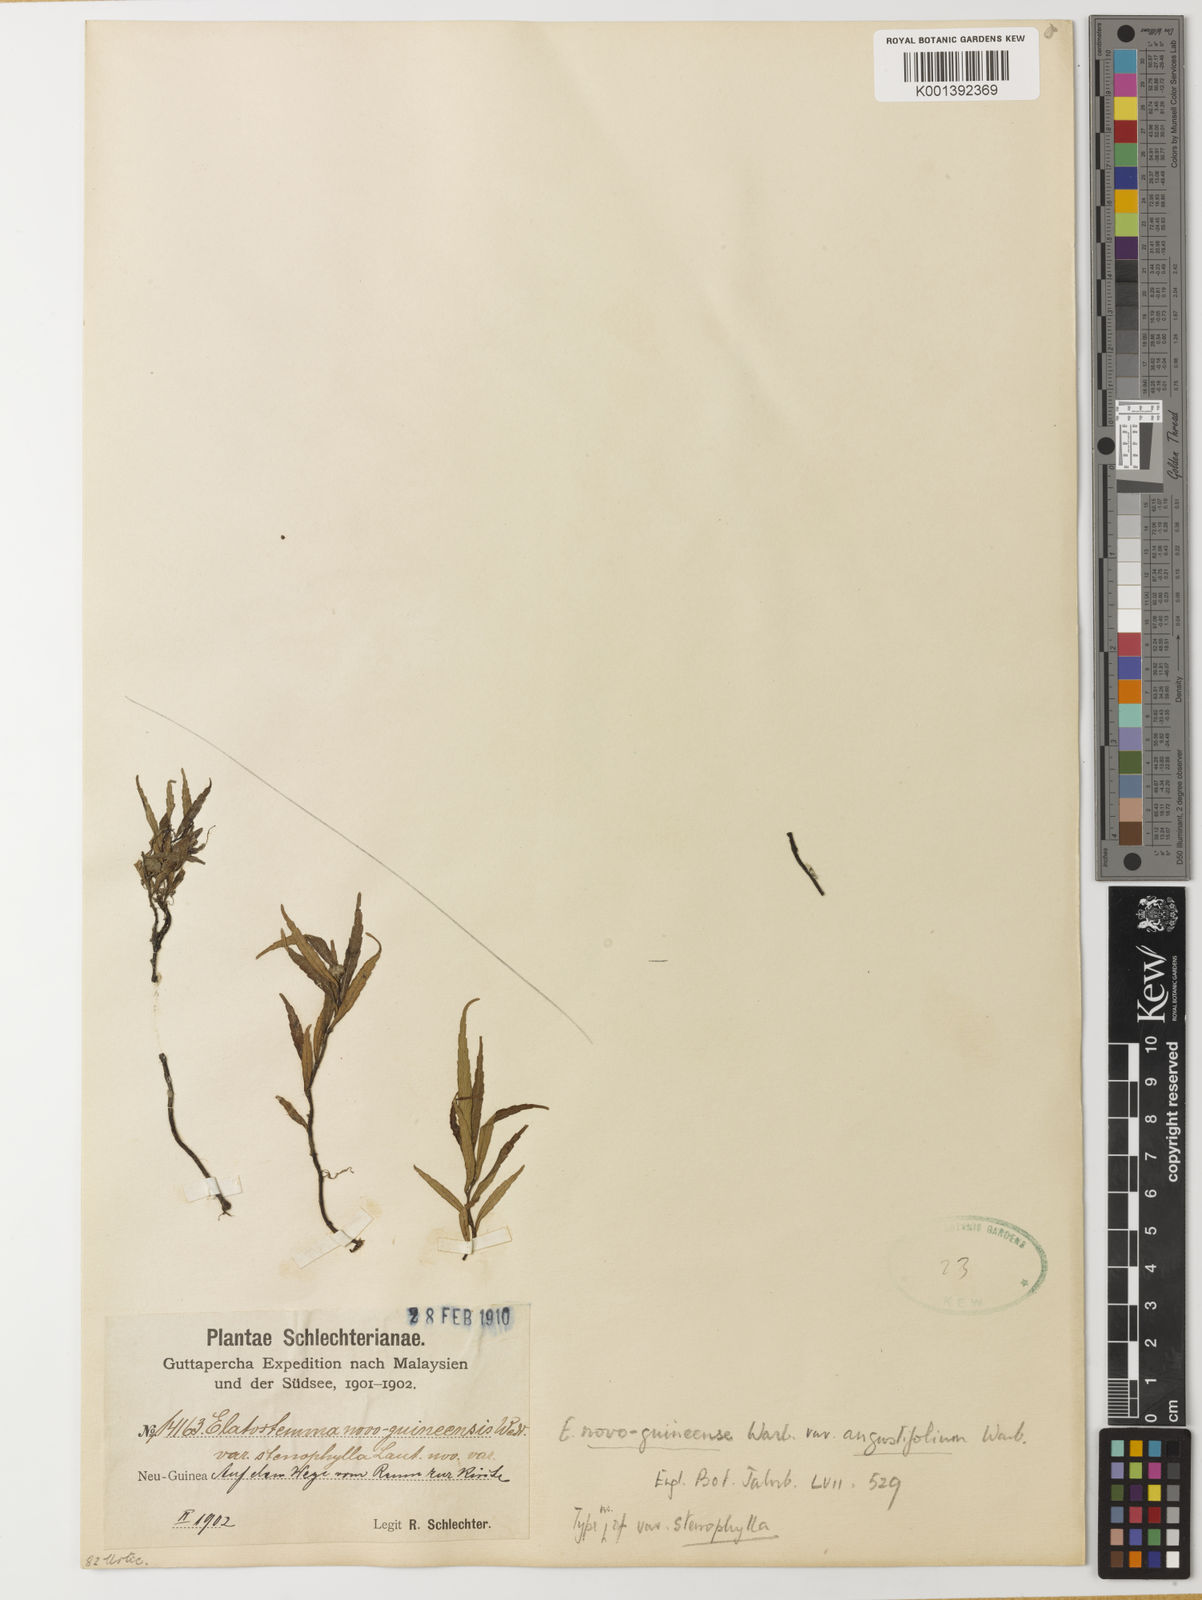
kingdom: Plantae
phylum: Tracheophyta
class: Magnoliopsida
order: Rosales
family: Urticaceae
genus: Elatostema
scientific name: Elatostema novoguineense
